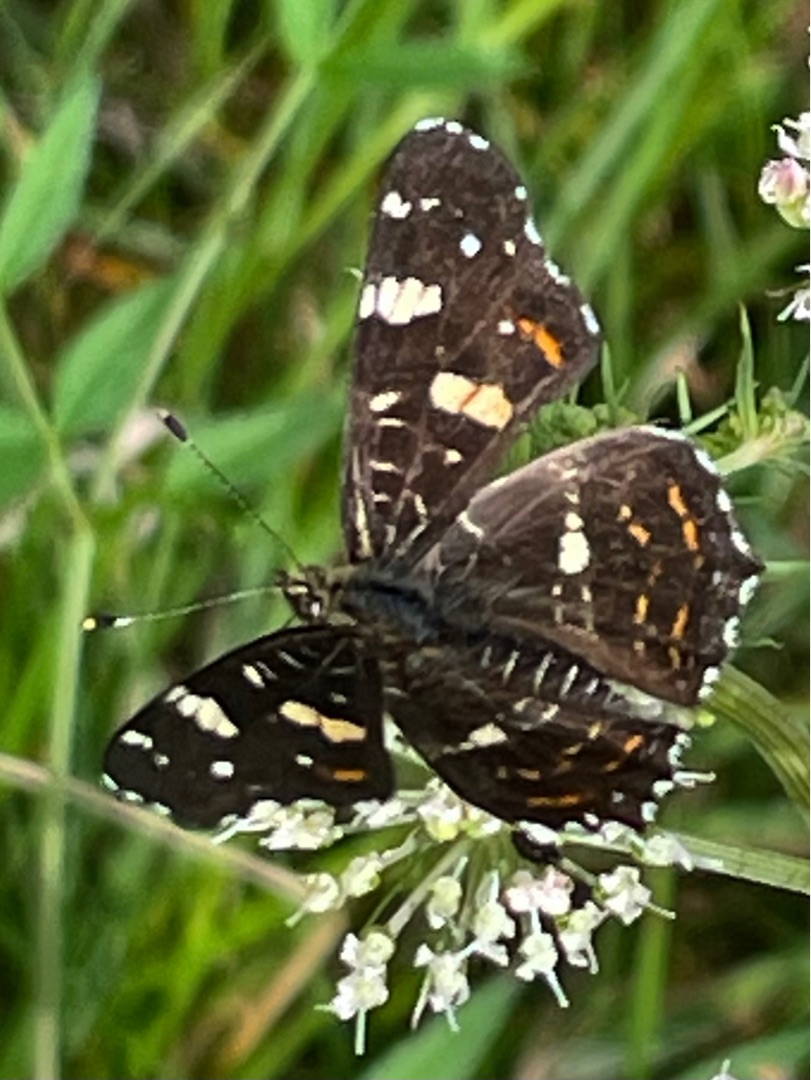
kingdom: Animalia
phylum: Arthropoda
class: Insecta
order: Lepidoptera
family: Nymphalidae
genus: Araschnia
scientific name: Araschnia levana
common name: Nældesommerfugl
